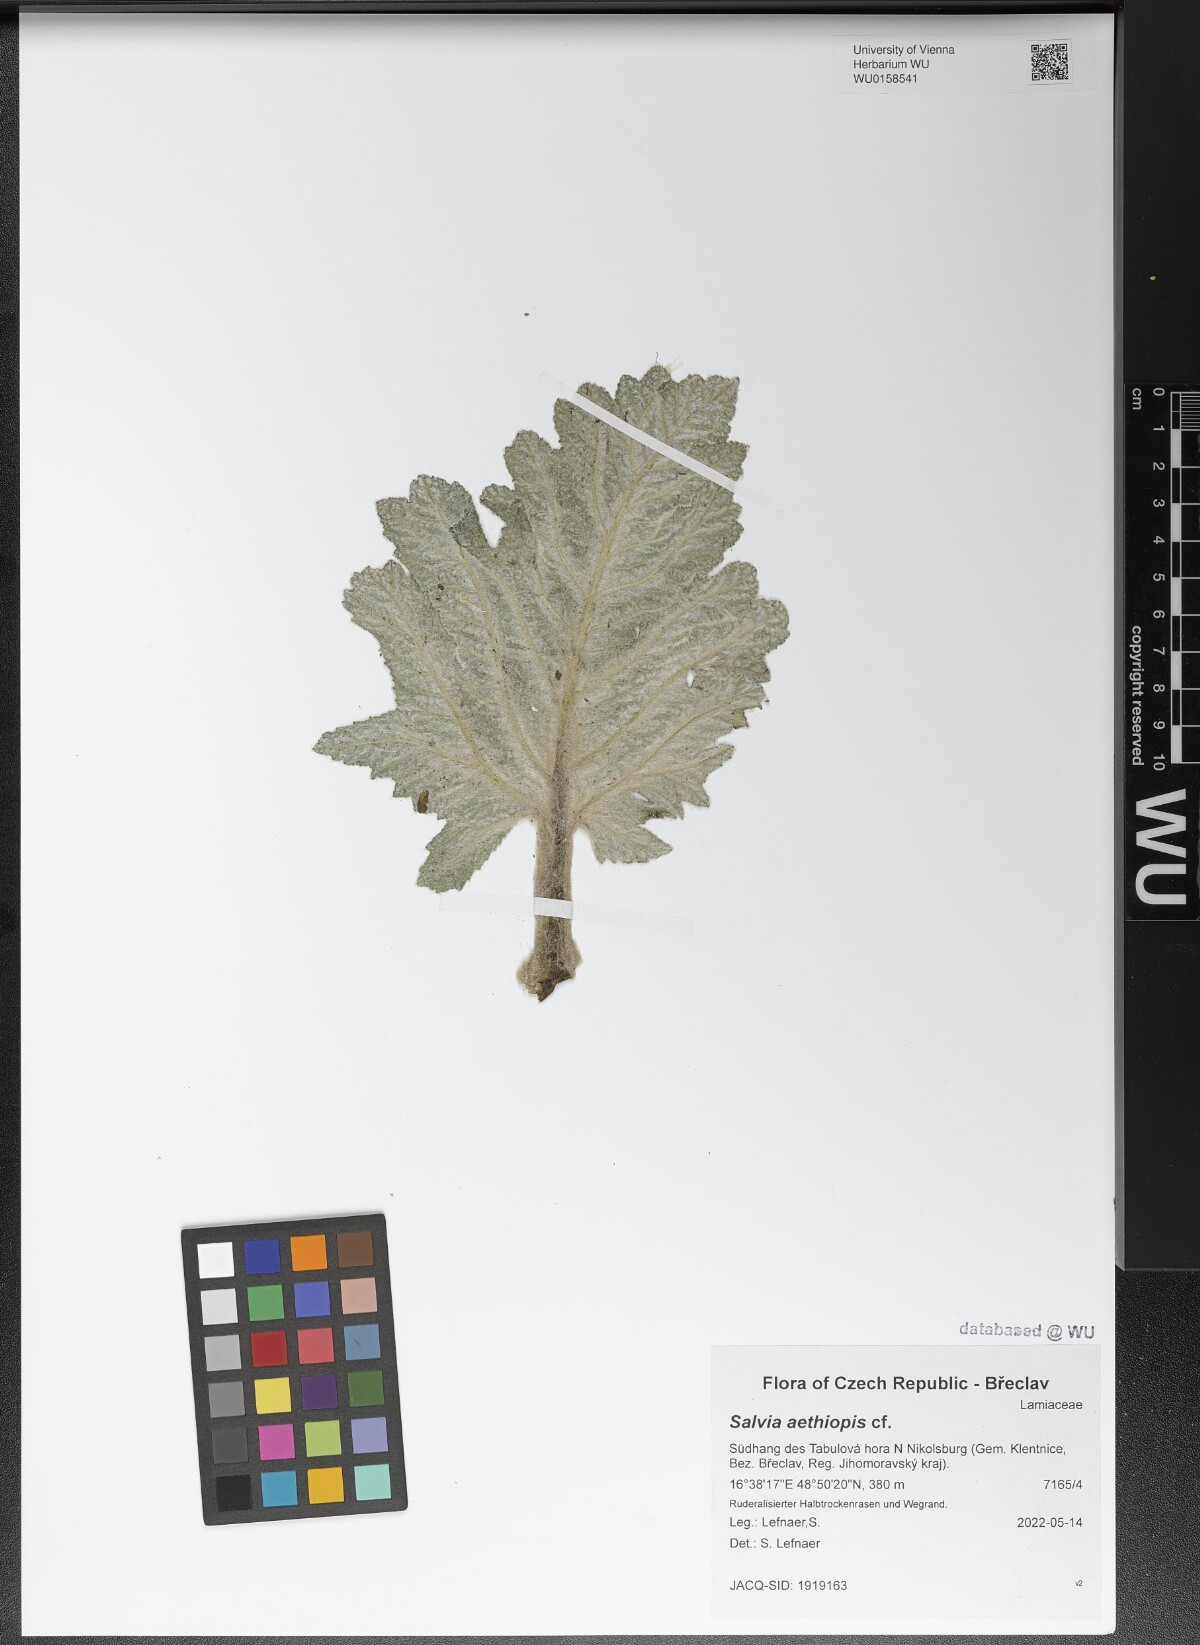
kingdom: Plantae
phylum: Tracheophyta
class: Magnoliopsida
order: Lamiales
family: Lamiaceae
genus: Salvia
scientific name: Salvia aethiopis
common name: Mediterranean sage
